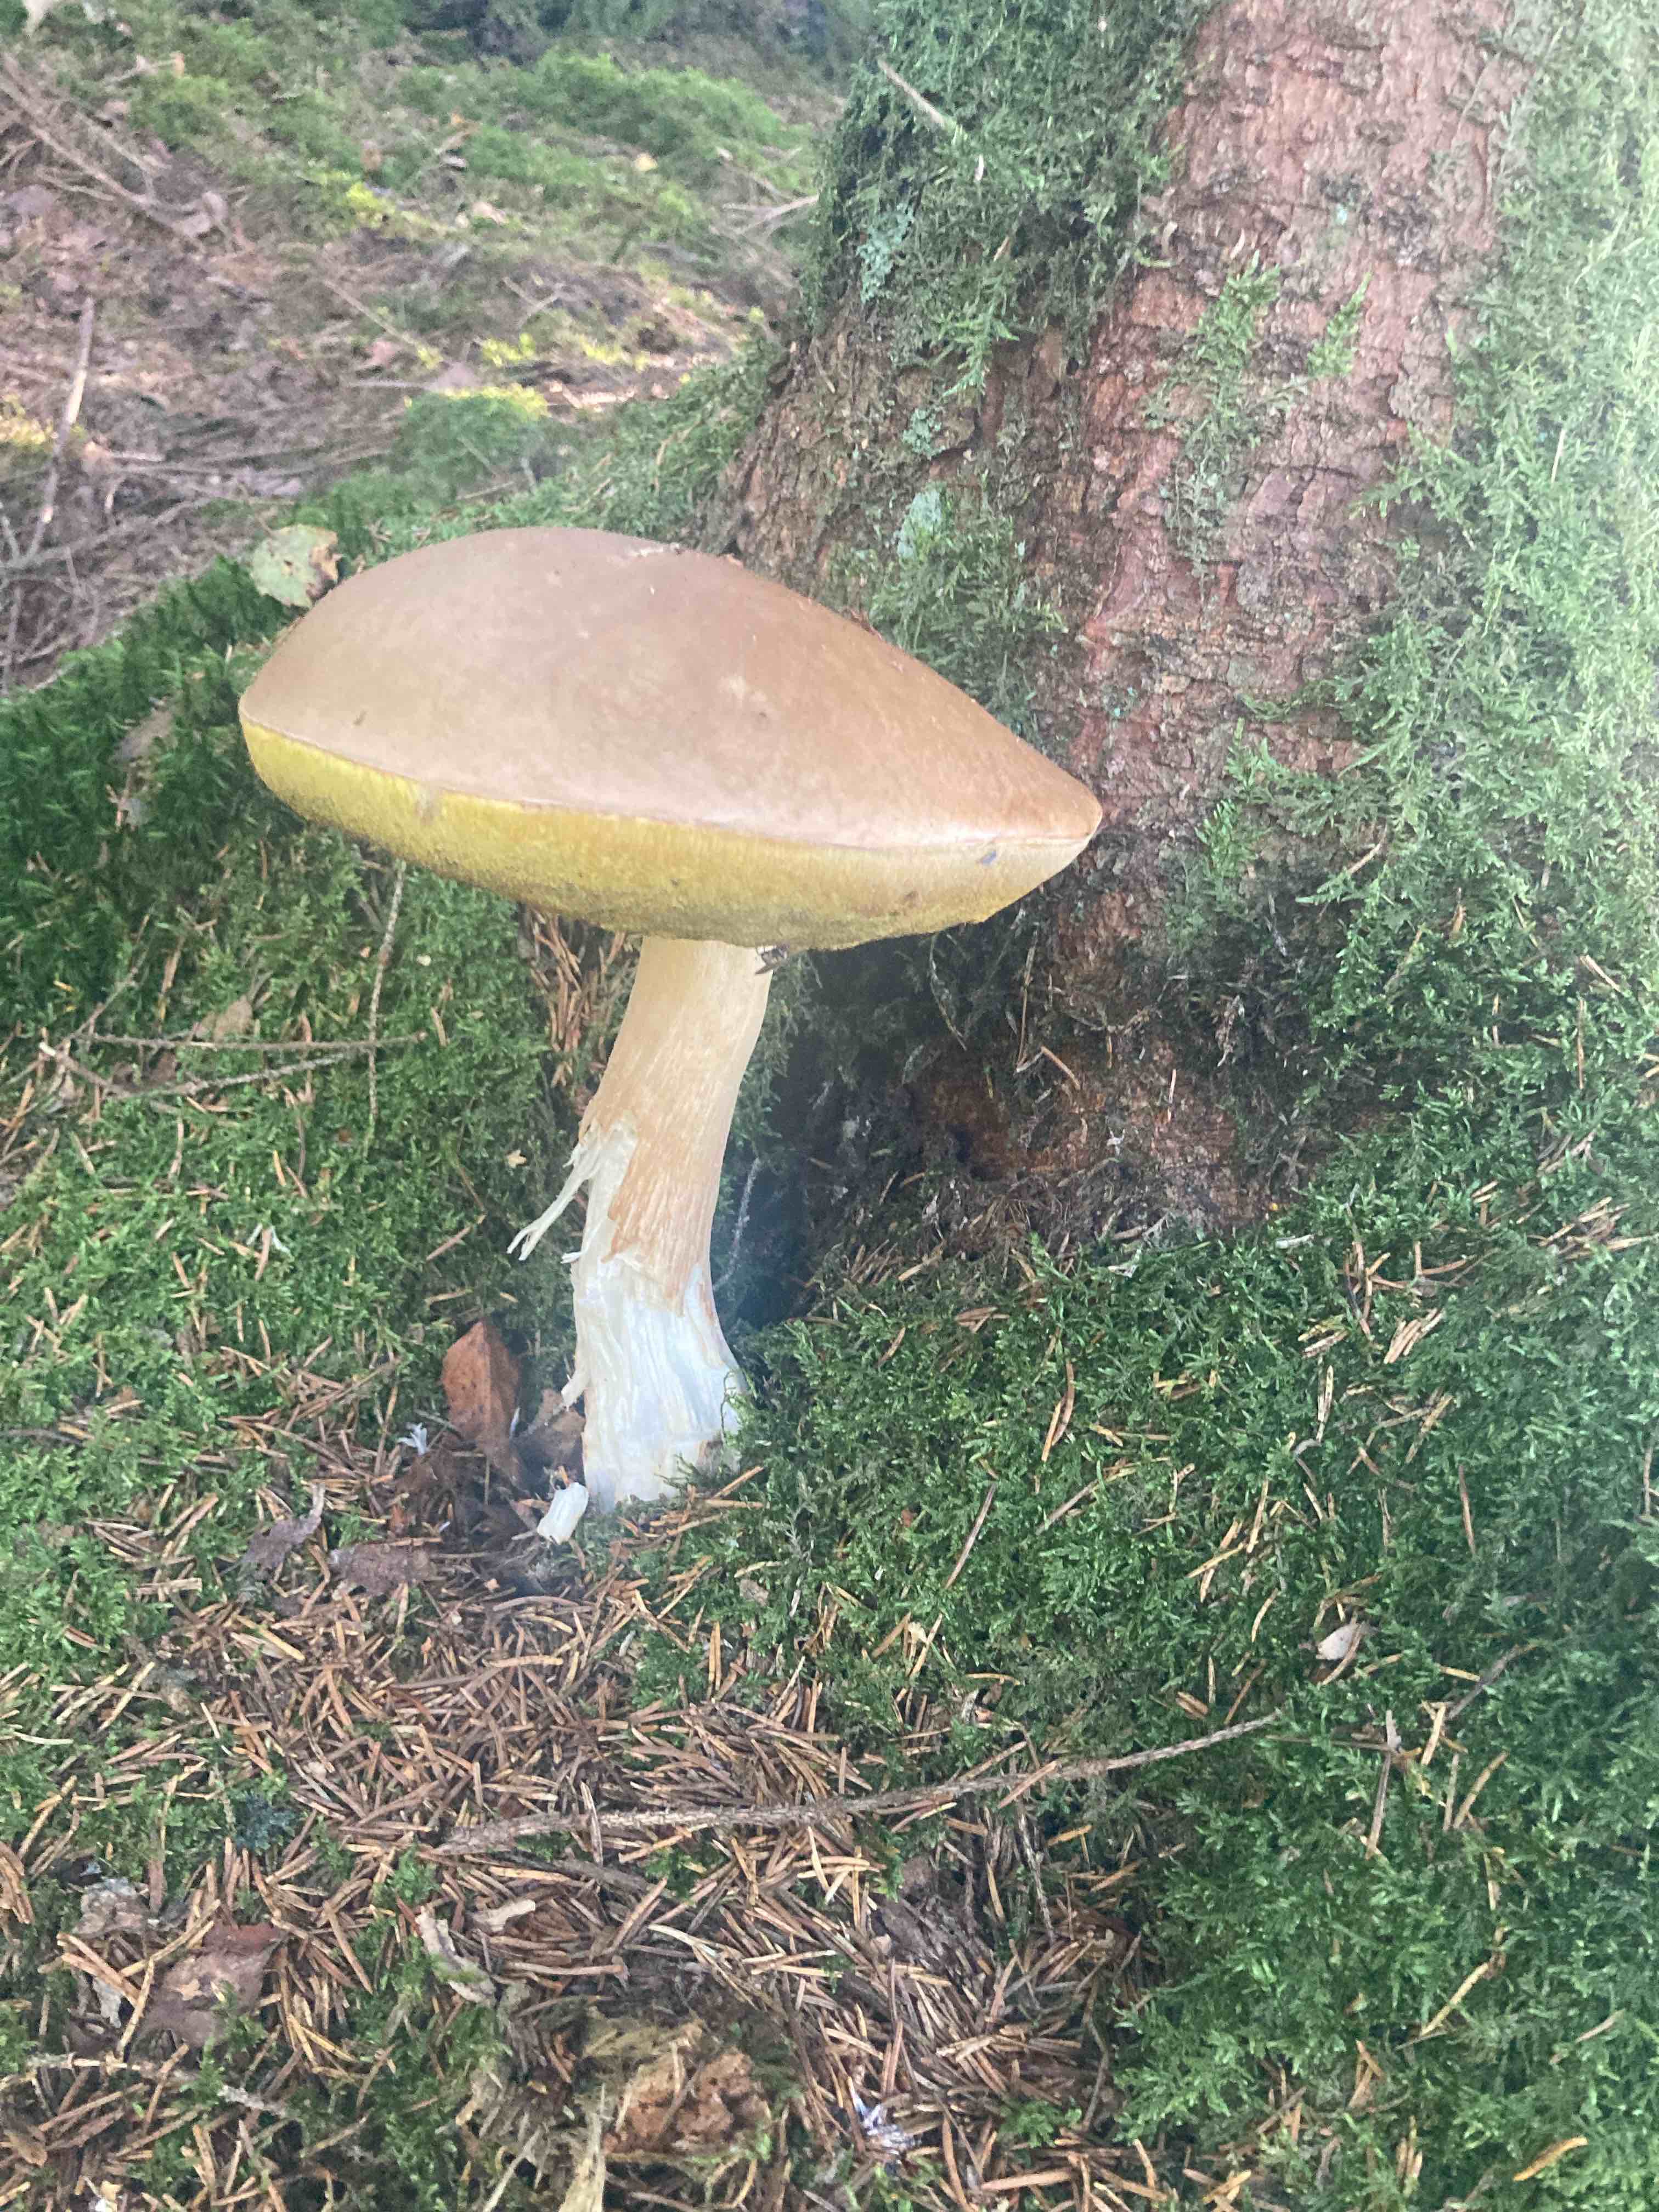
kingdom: Fungi
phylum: Basidiomycota
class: Agaricomycetes
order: Boletales
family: Boletaceae
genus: Boletus
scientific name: Boletus edulis
